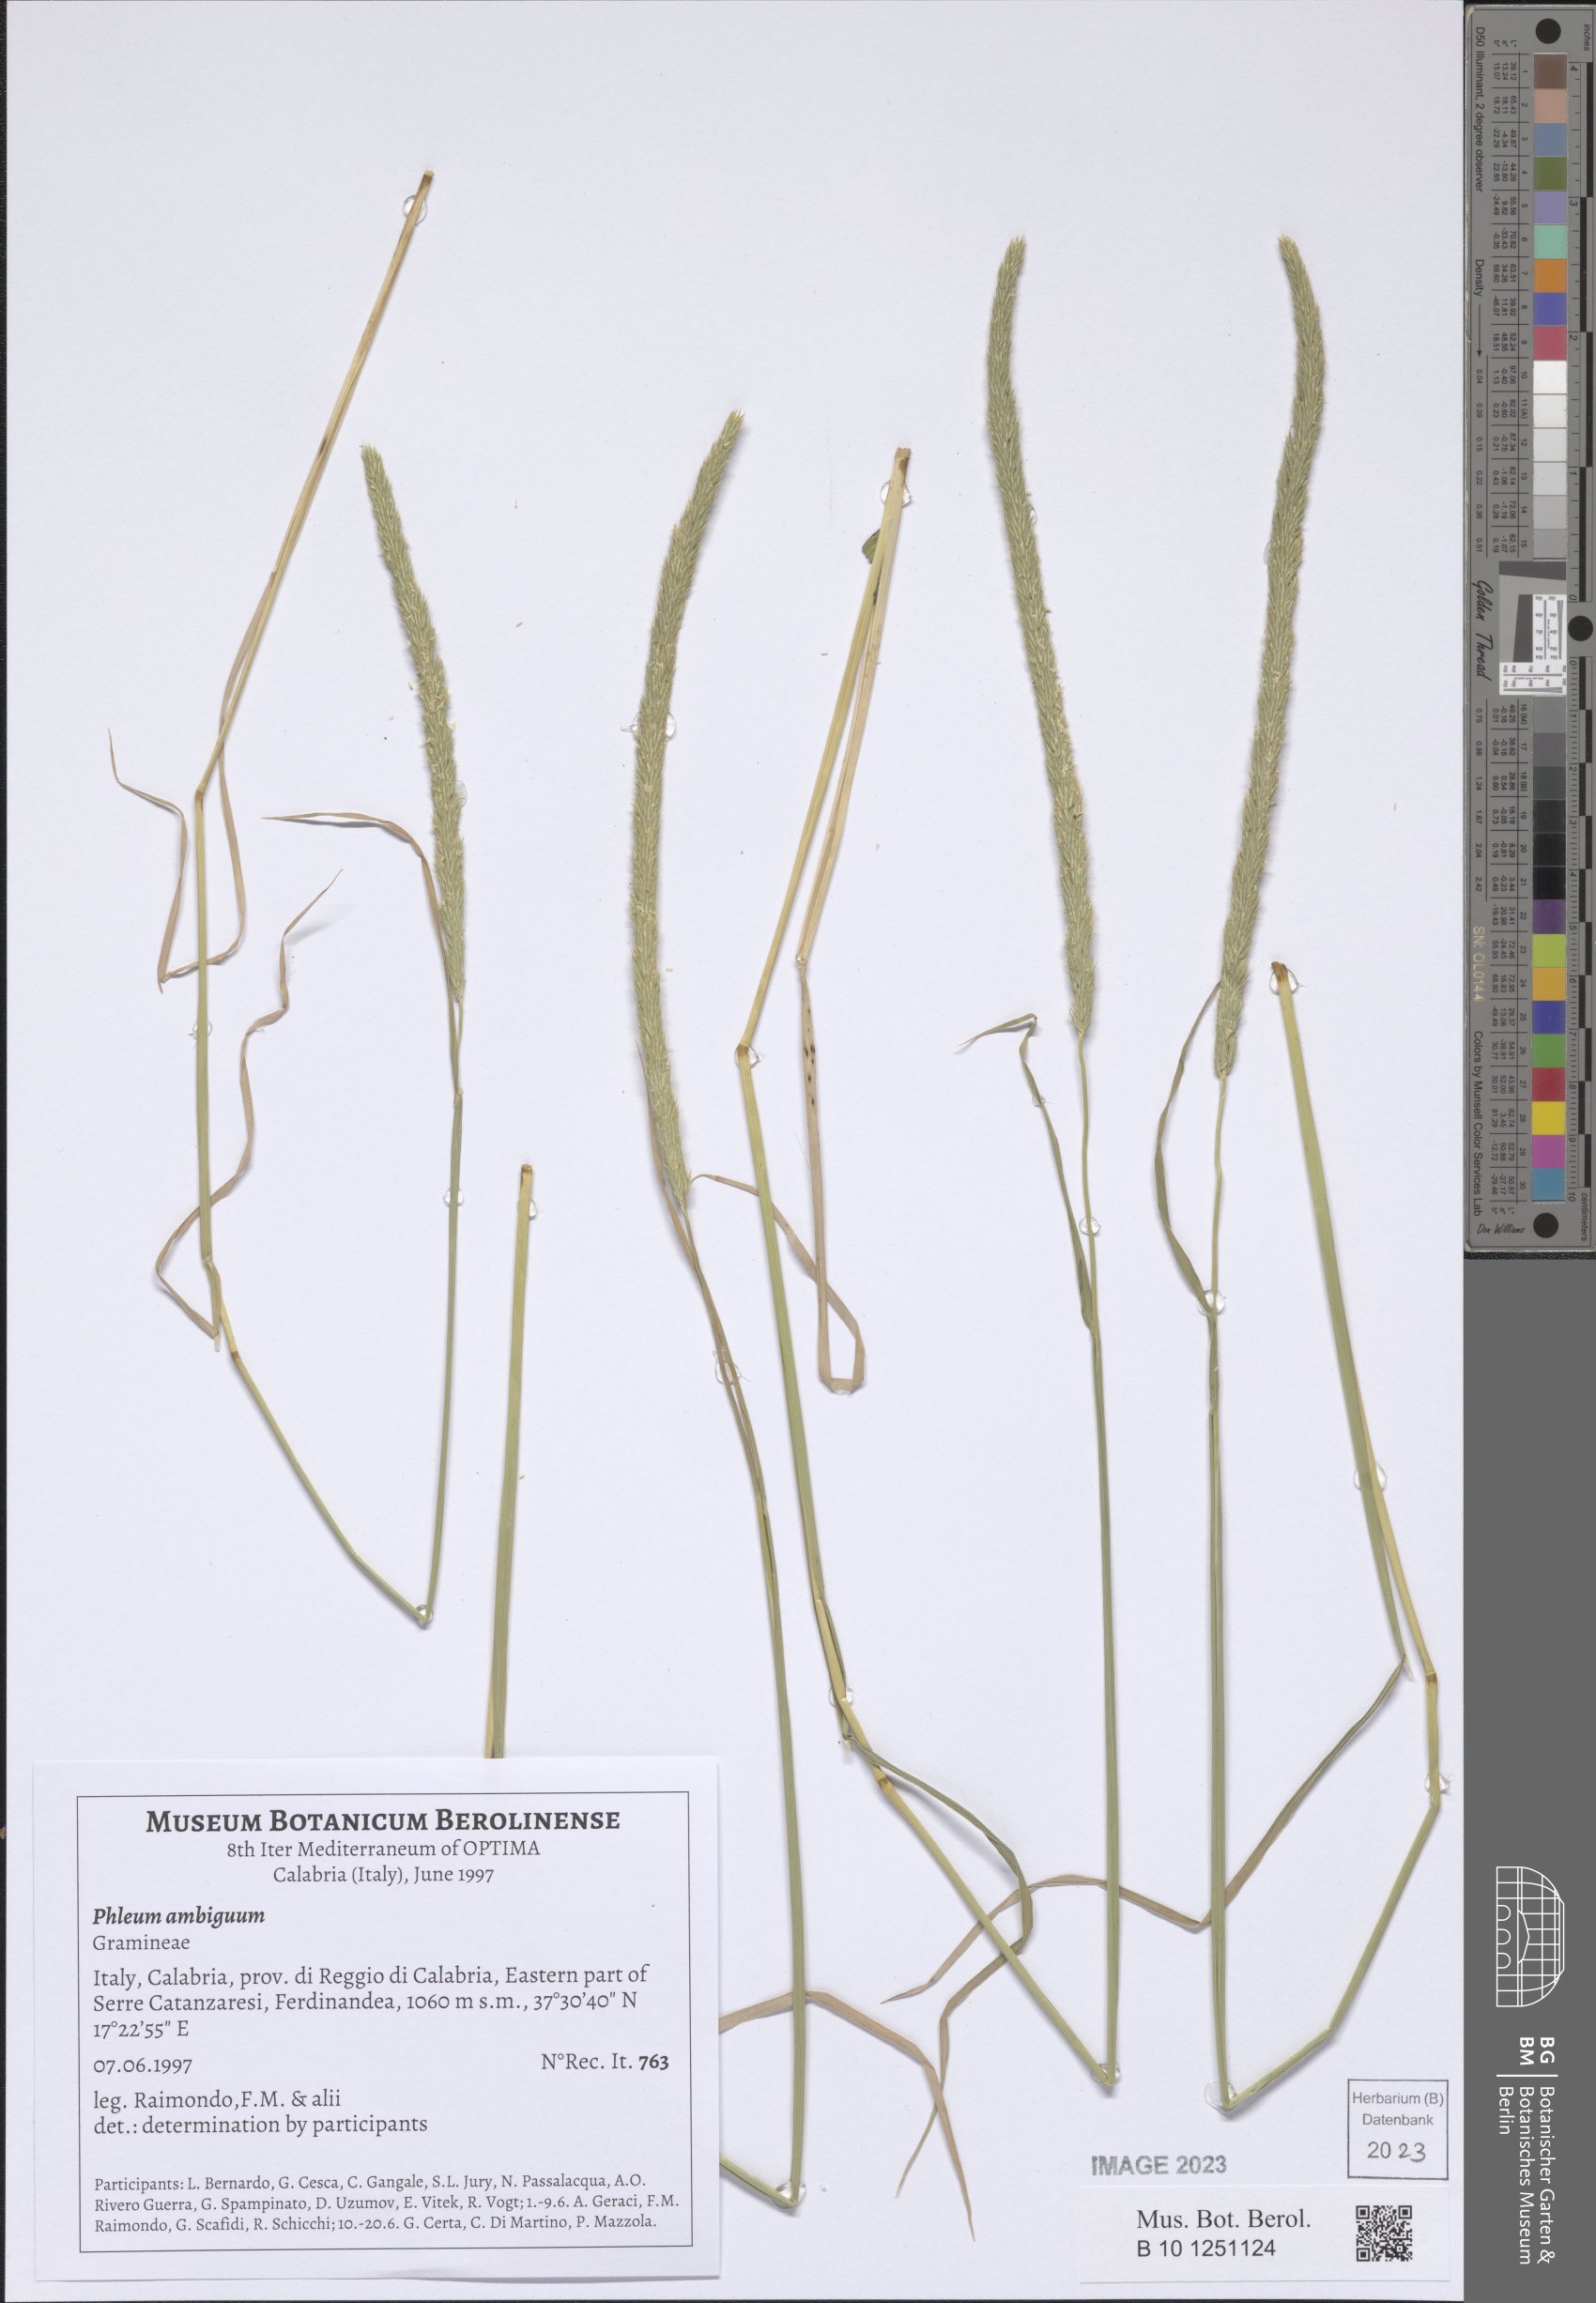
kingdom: Plantae
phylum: Tracheophyta
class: Liliopsida
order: Poales
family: Poaceae
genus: Phleum
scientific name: Phleum hirsutum
